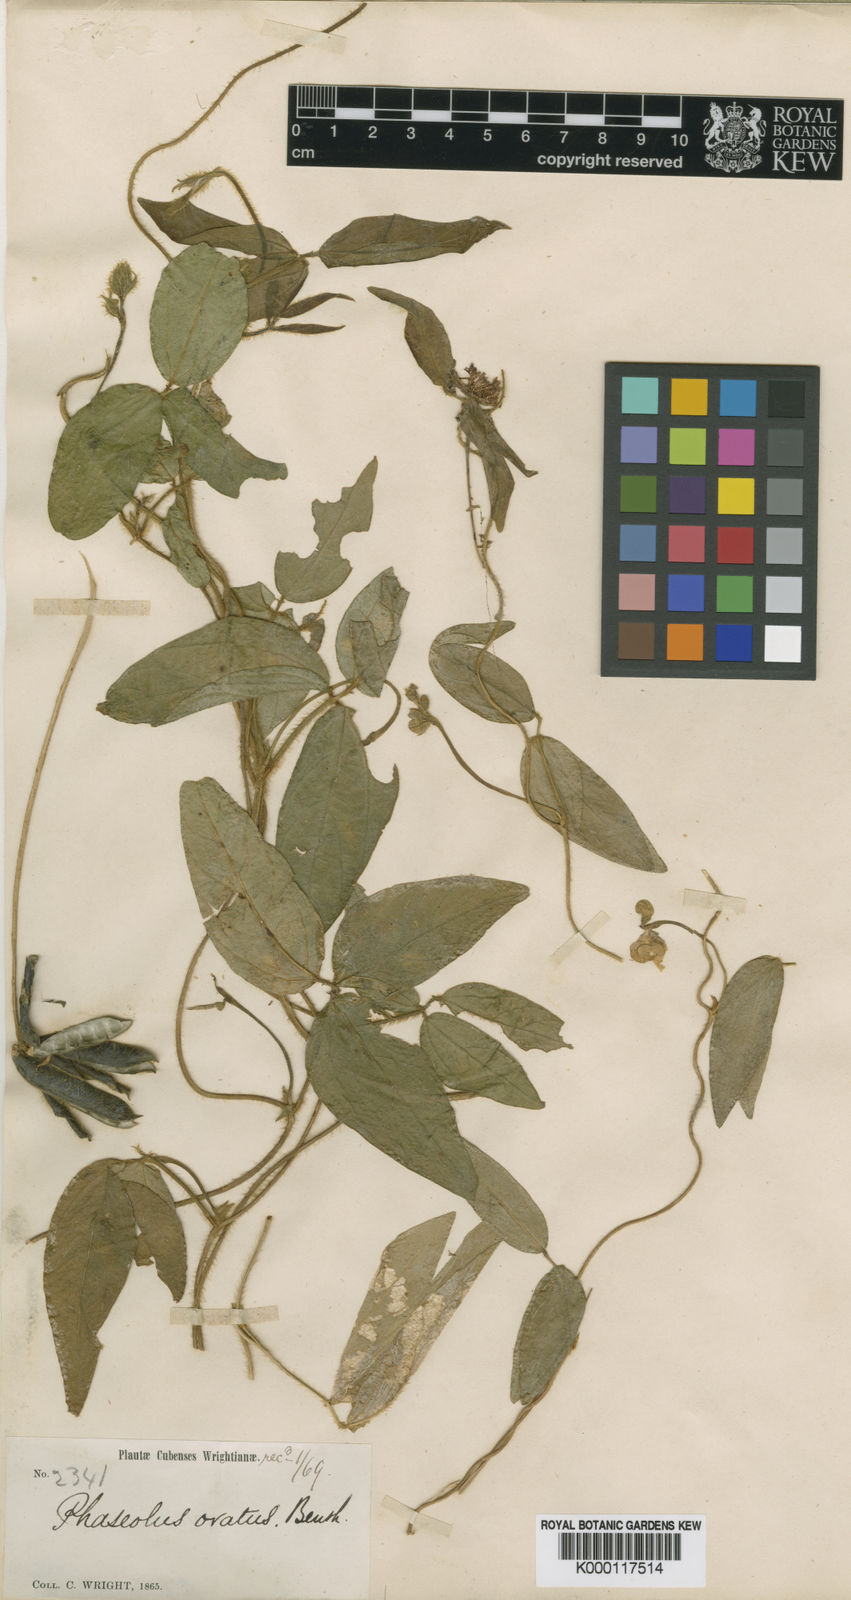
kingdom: Plantae
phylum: Tracheophyta
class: Magnoliopsida
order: Fabales
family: Fabaceae
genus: Vigna
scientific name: Vigna longifolia
